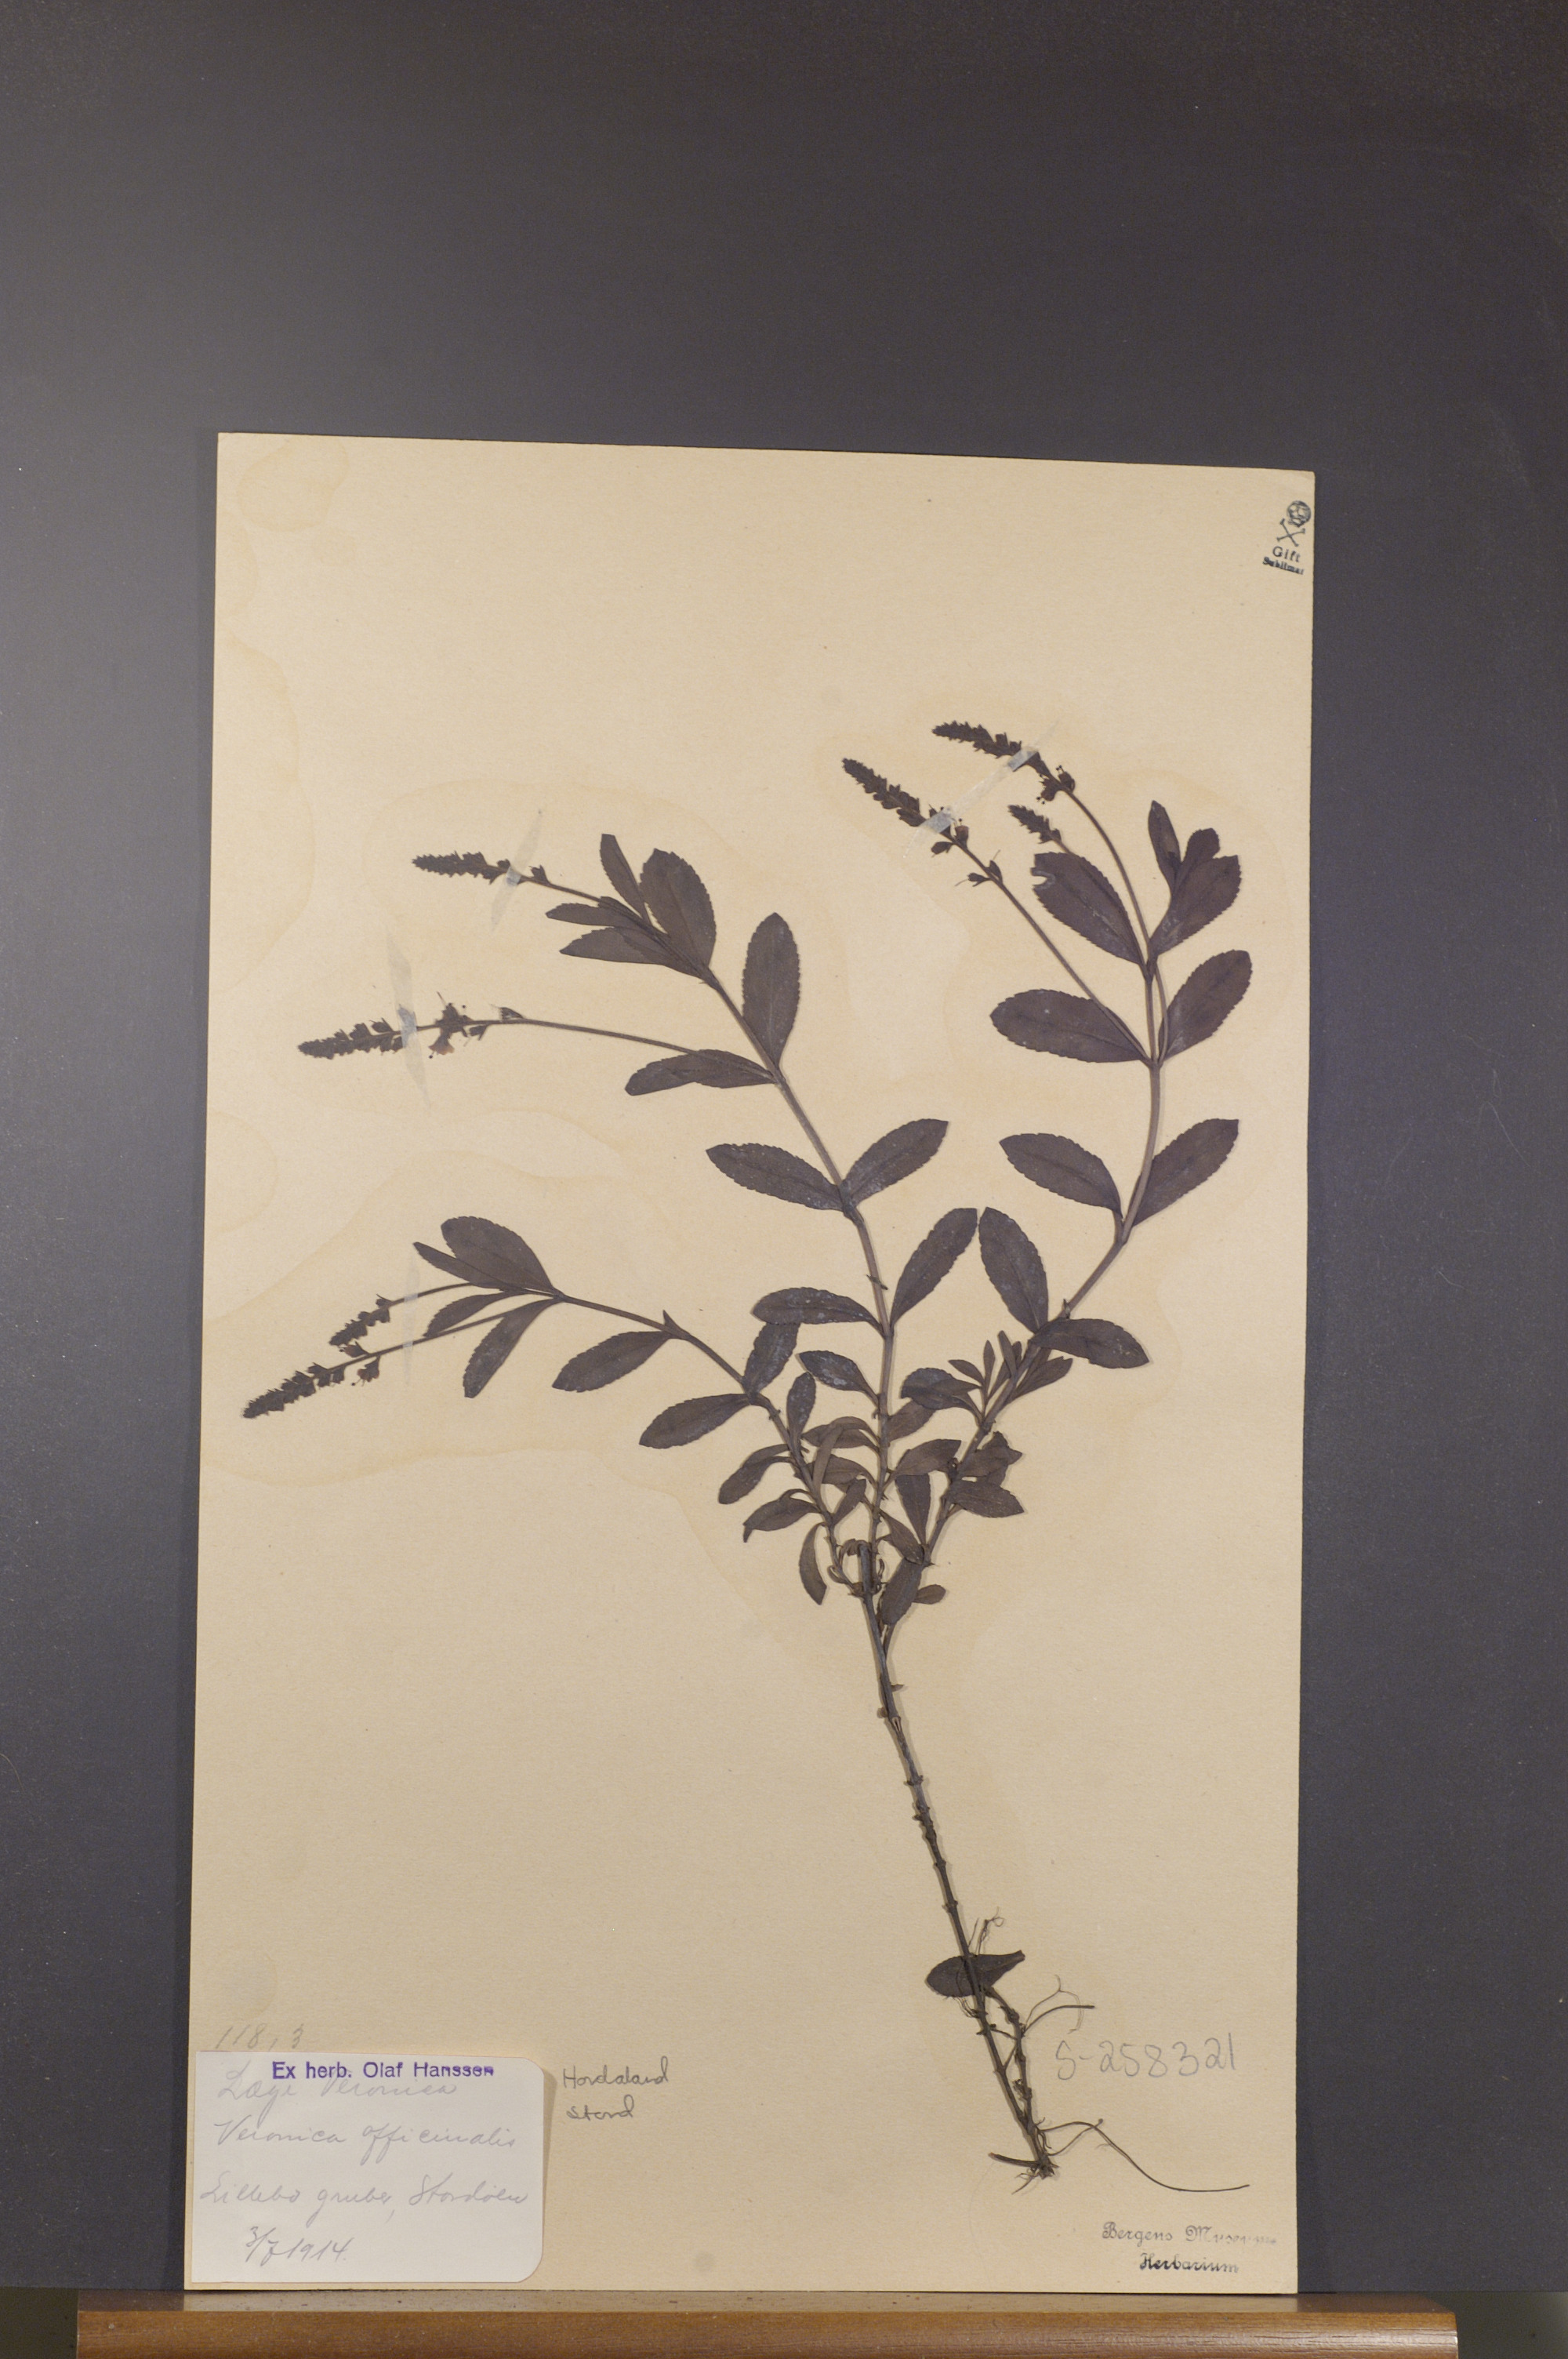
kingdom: Plantae
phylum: Tracheophyta
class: Magnoliopsida
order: Lamiales
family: Plantaginaceae
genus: Veronica
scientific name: Veronica officinalis
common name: Common speedwell
